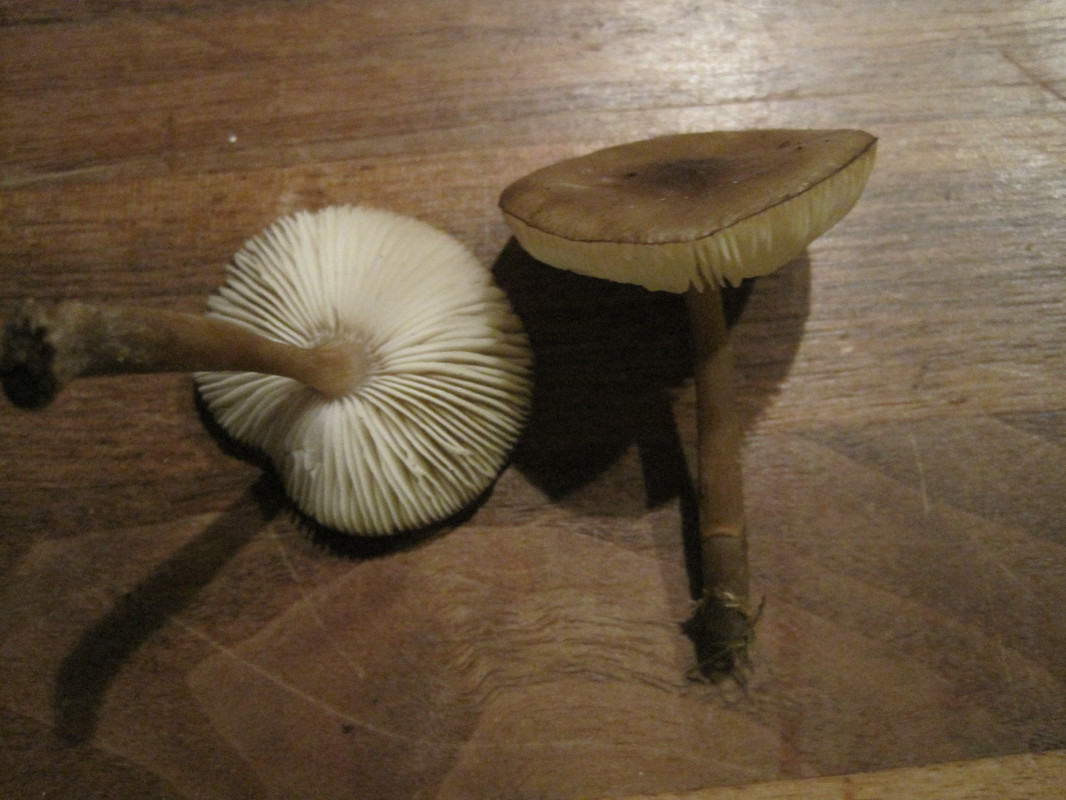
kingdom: Fungi
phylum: Basidiomycota
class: Agaricomycetes
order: Agaricales
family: Tricholomataceae
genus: Melanoleuca
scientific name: Melanoleuca microcephala
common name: spinkel munkehat
